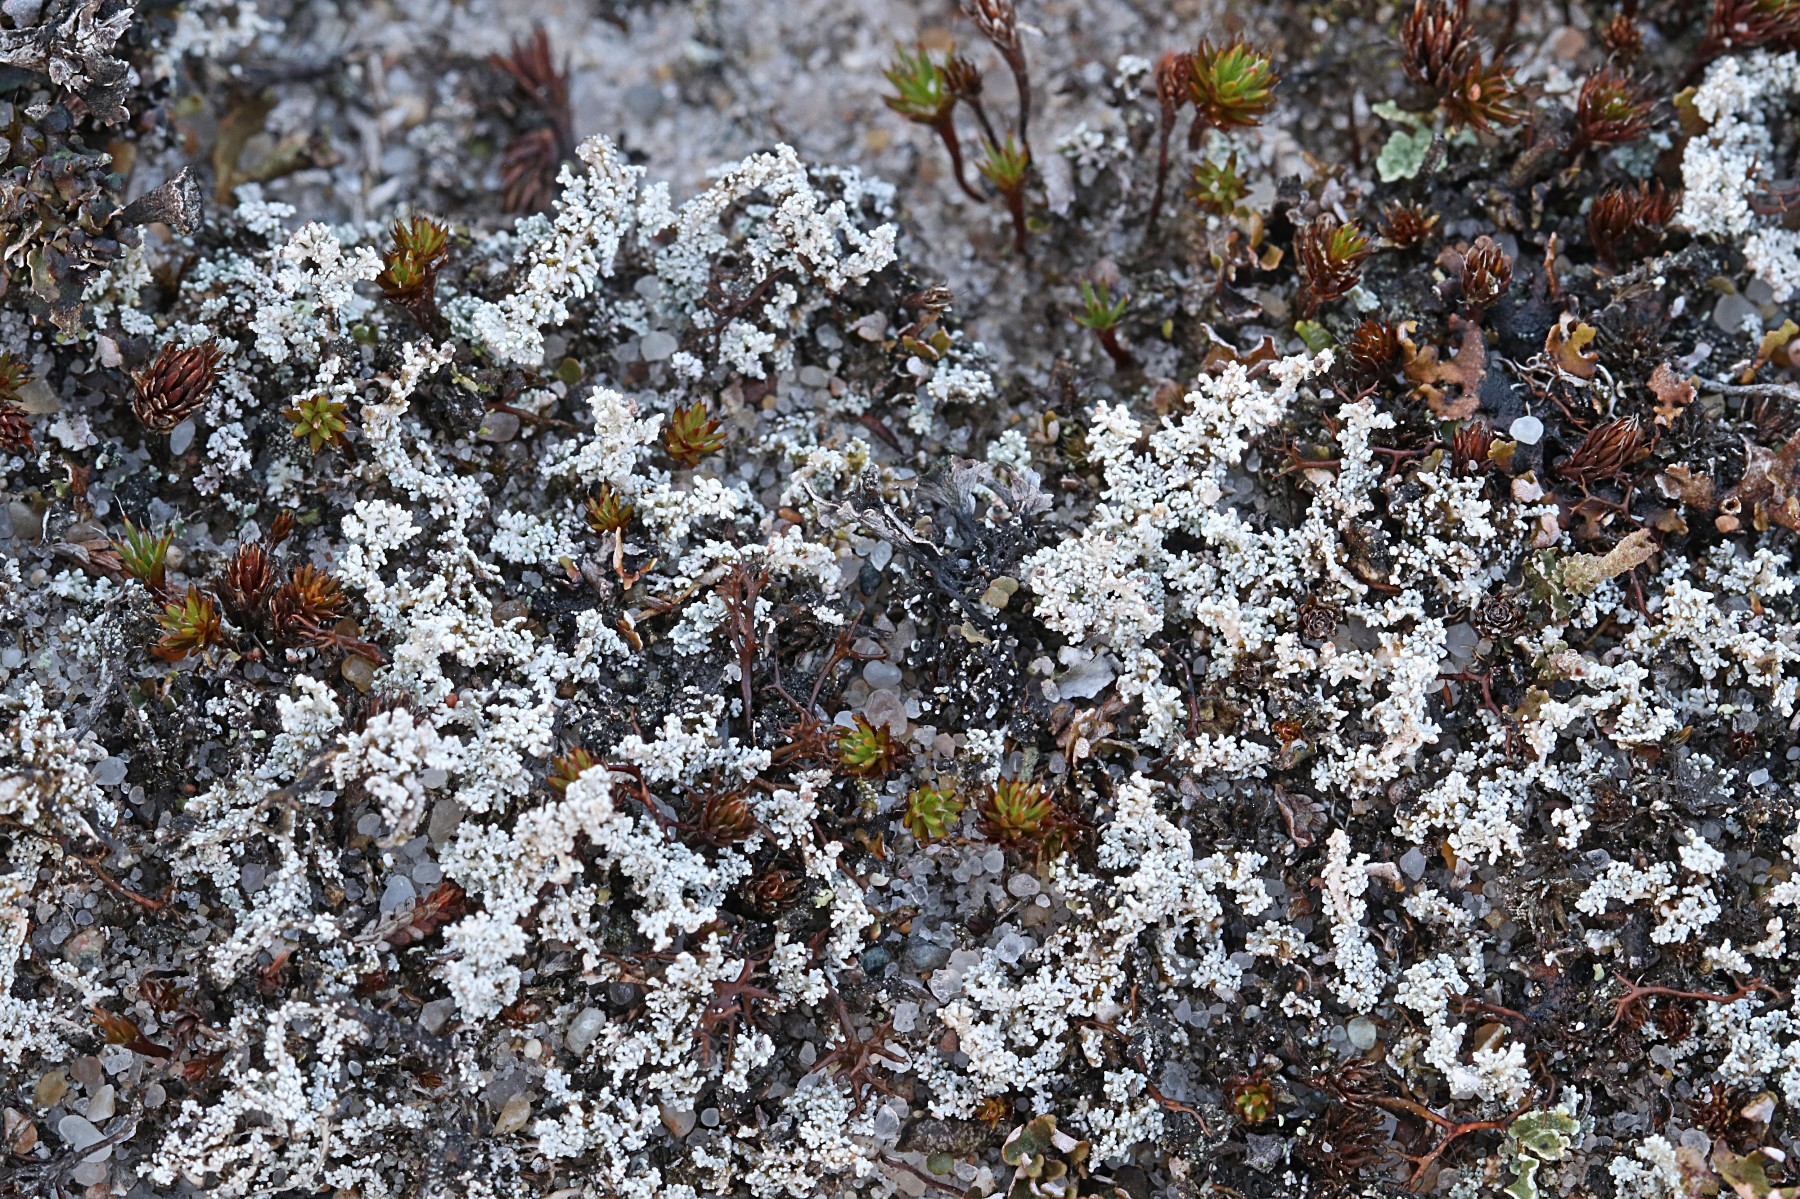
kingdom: Fungi
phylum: Ascomycota
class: Lecanoromycetes
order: Lecanorales
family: Stereocaulaceae
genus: Stereocaulon
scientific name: Stereocaulon saxatile
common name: klit-korallav
